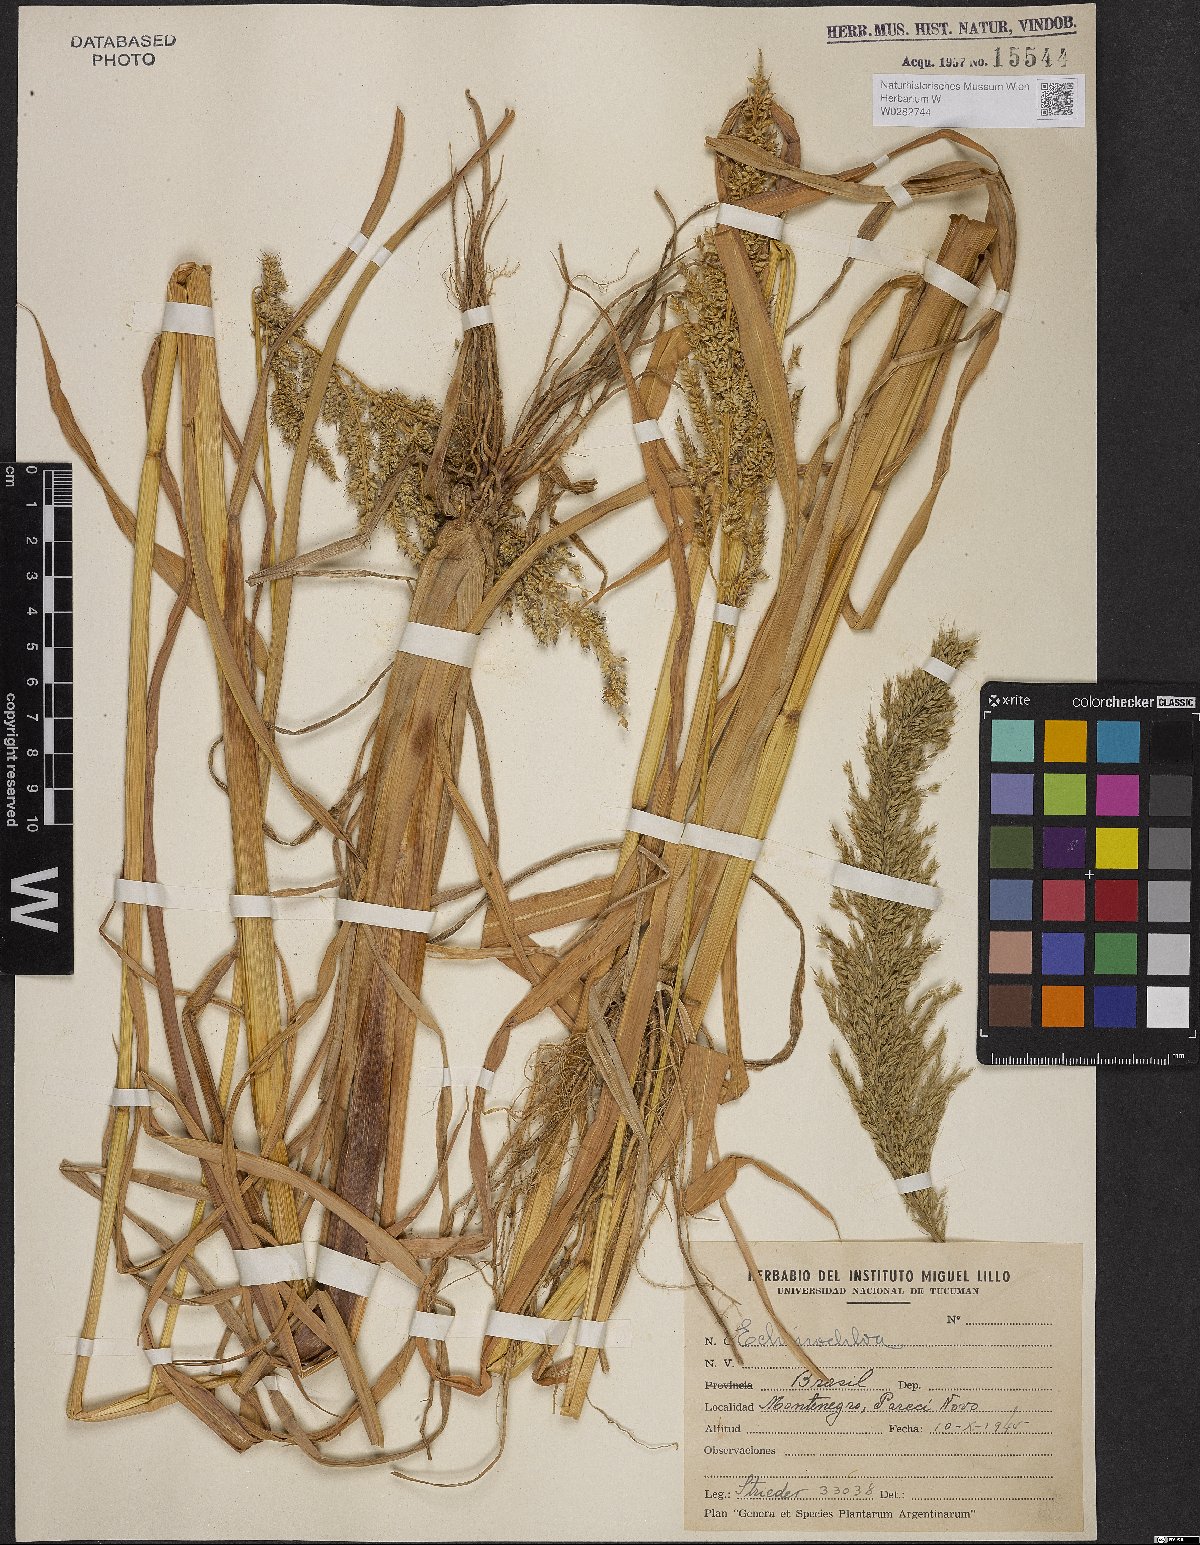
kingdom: Plantae
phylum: Tracheophyta
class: Liliopsida
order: Poales
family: Poaceae
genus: Echinochloa
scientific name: Echinochloa crus-galli
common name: Cockspur
